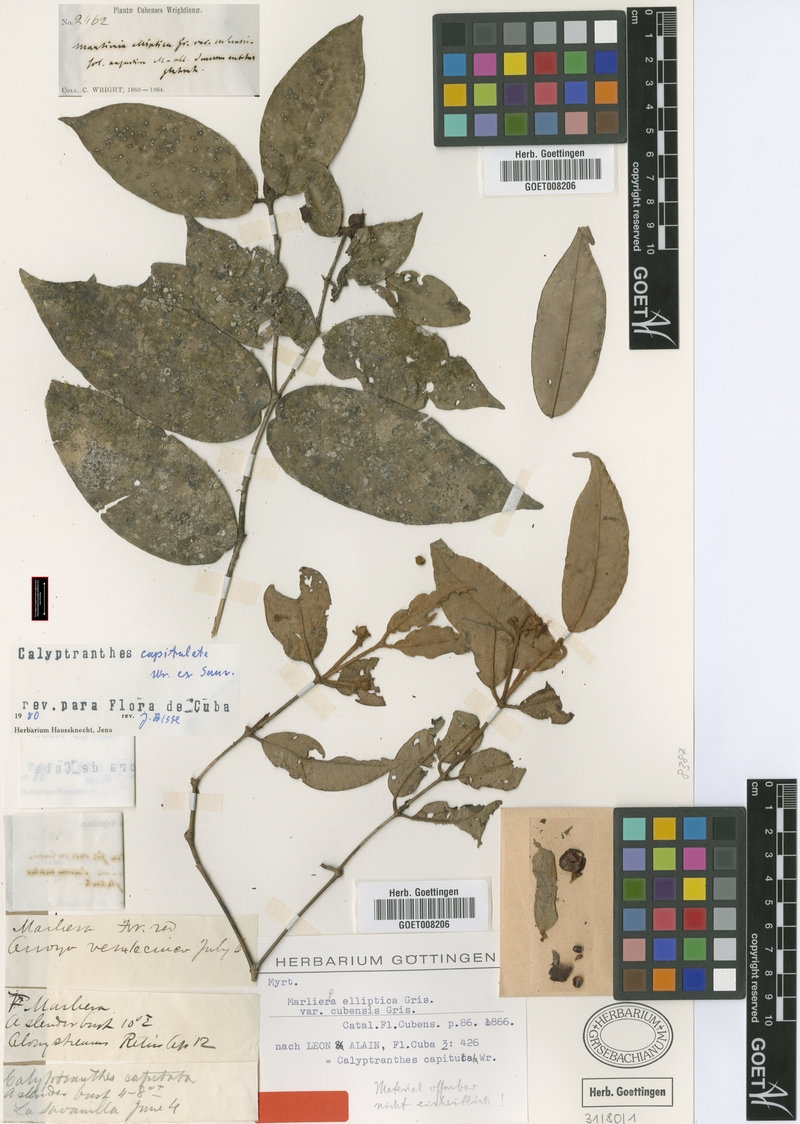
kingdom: Plantae
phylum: Tracheophyta
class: Magnoliopsida
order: Myrtales
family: Myrtaceae
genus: Calyptranthes
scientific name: Calyptranthes capitulata
